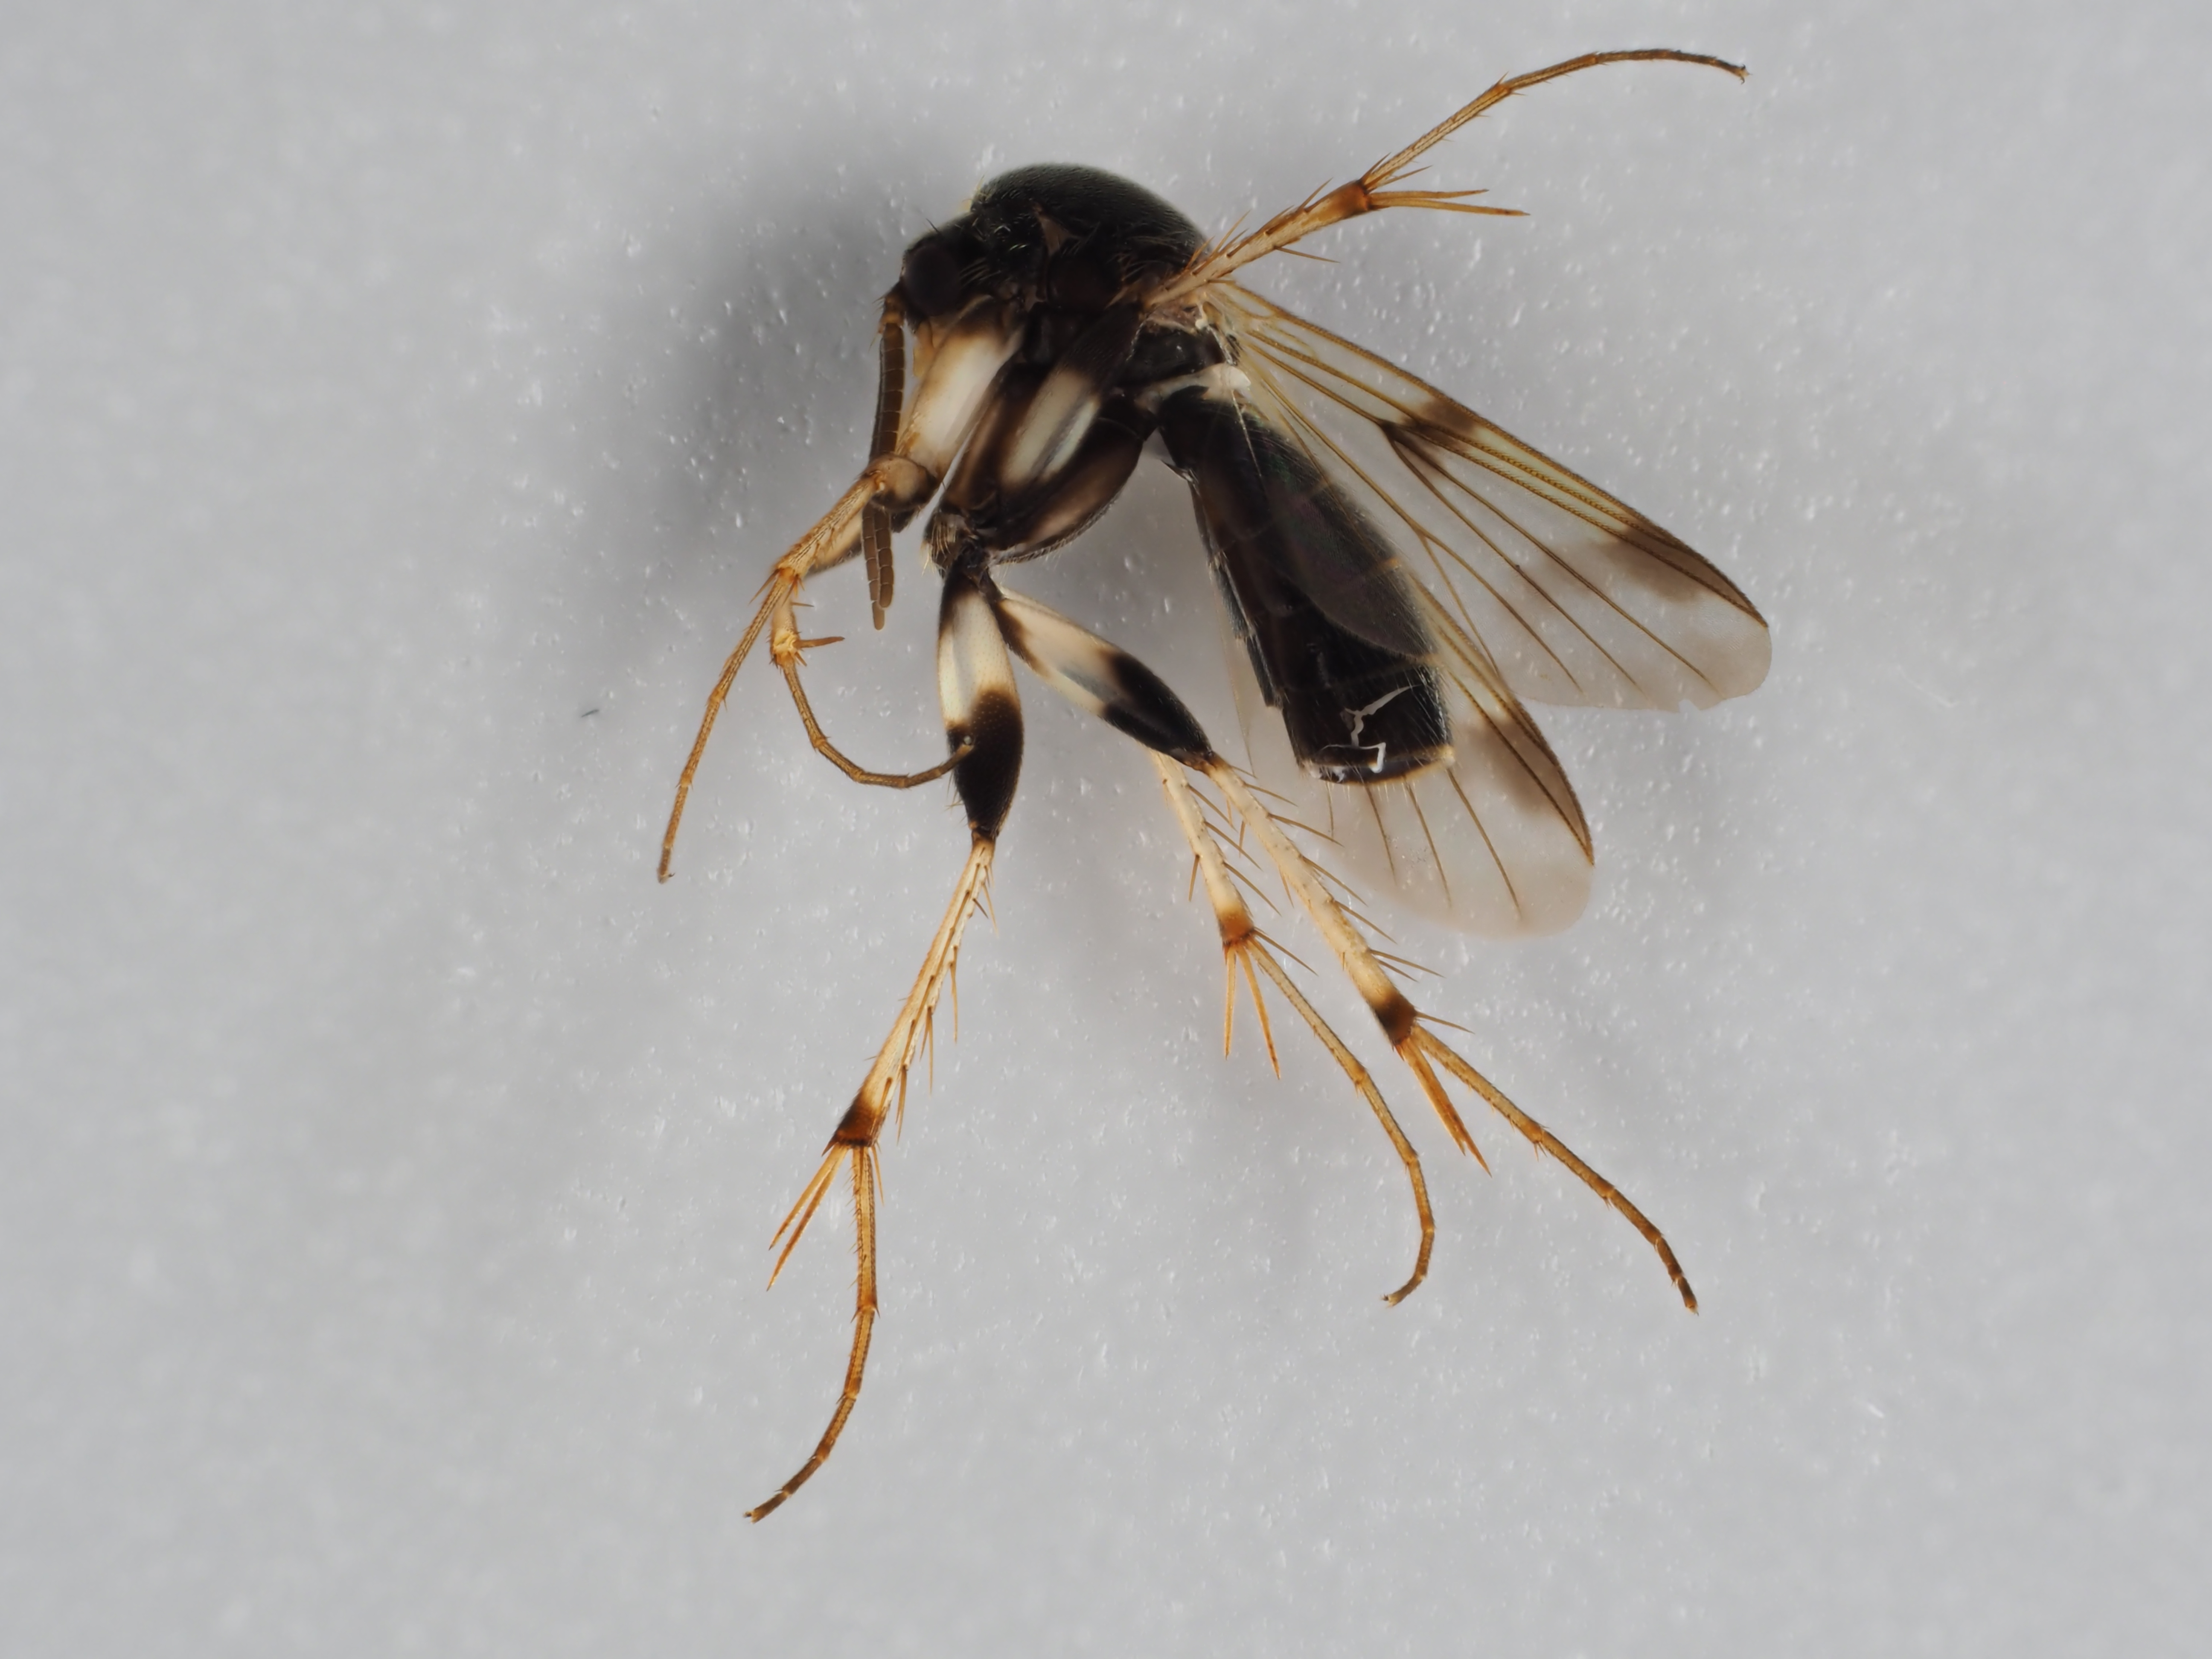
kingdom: Animalia
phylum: Arthropoda
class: Insecta
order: Diptera
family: Mycetophilidae
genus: Dynatosoma
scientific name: Dynatosoma nigromaculatum
